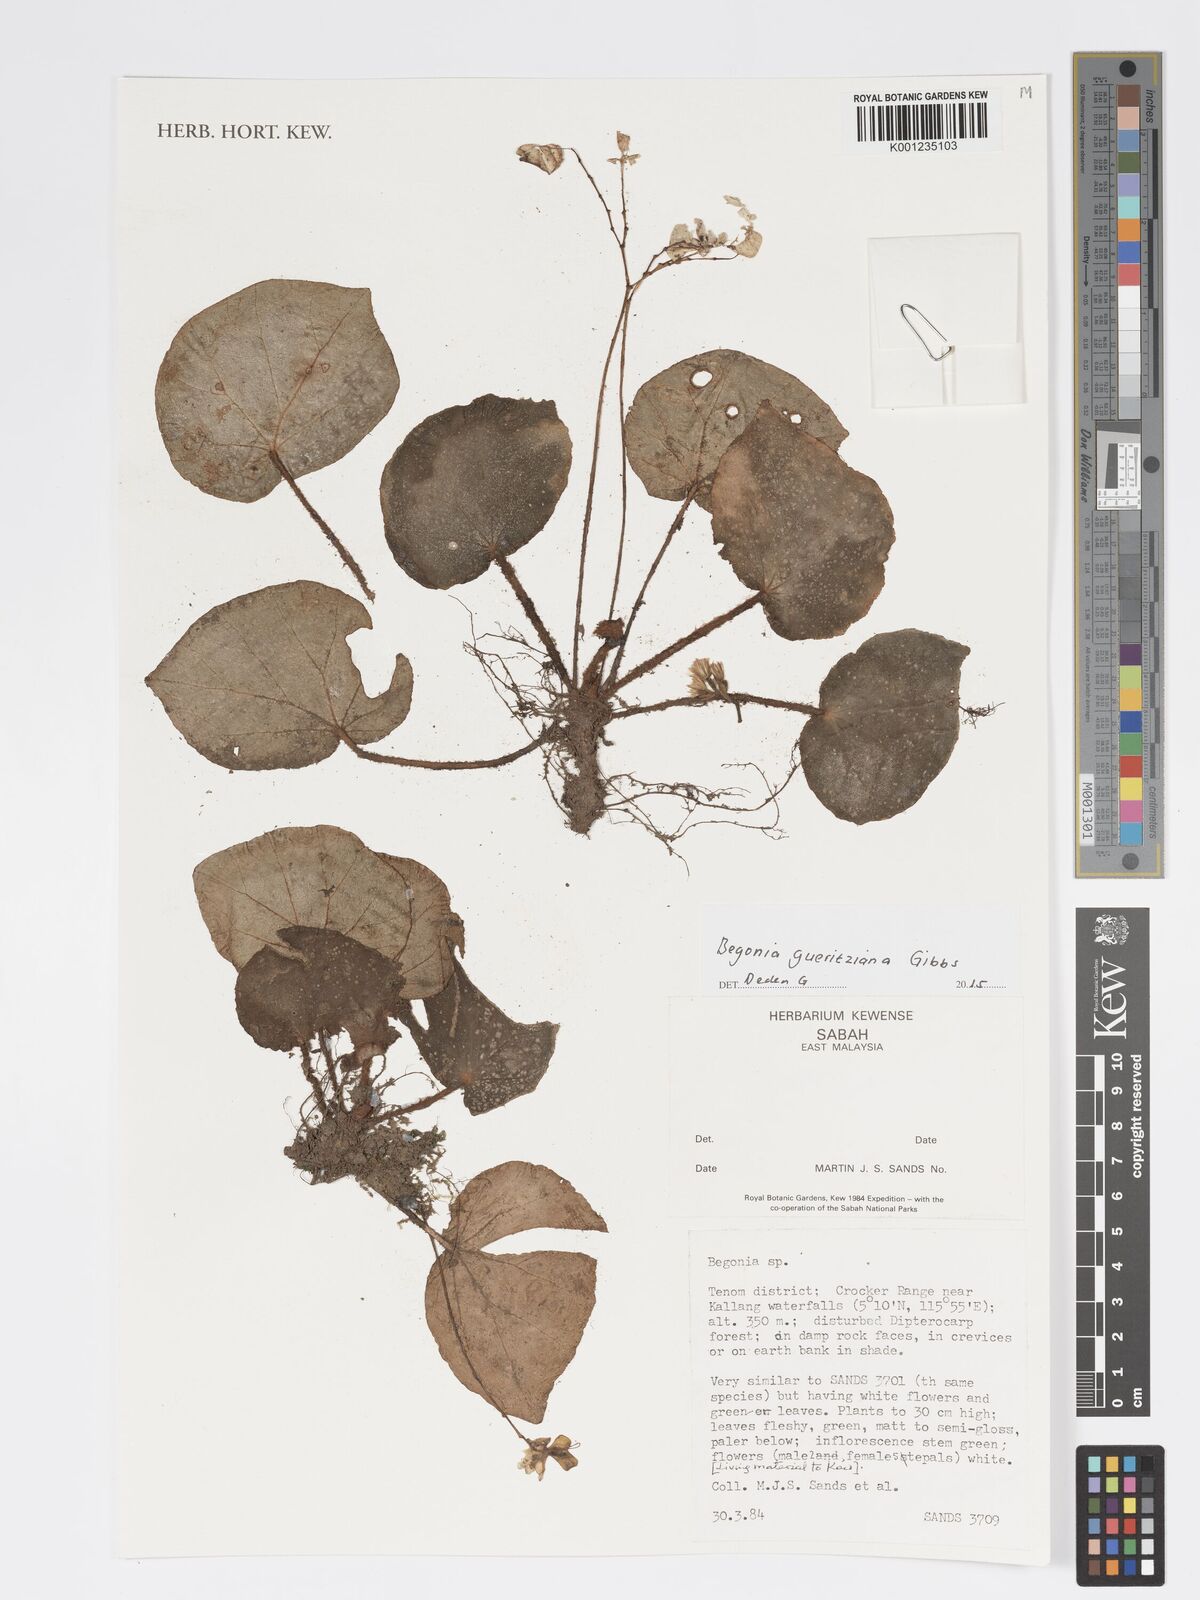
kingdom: Plantae
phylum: Tracheophyta
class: Magnoliopsida
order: Cucurbitales
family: Begoniaceae
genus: Begonia
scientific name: Begonia gueritziana
